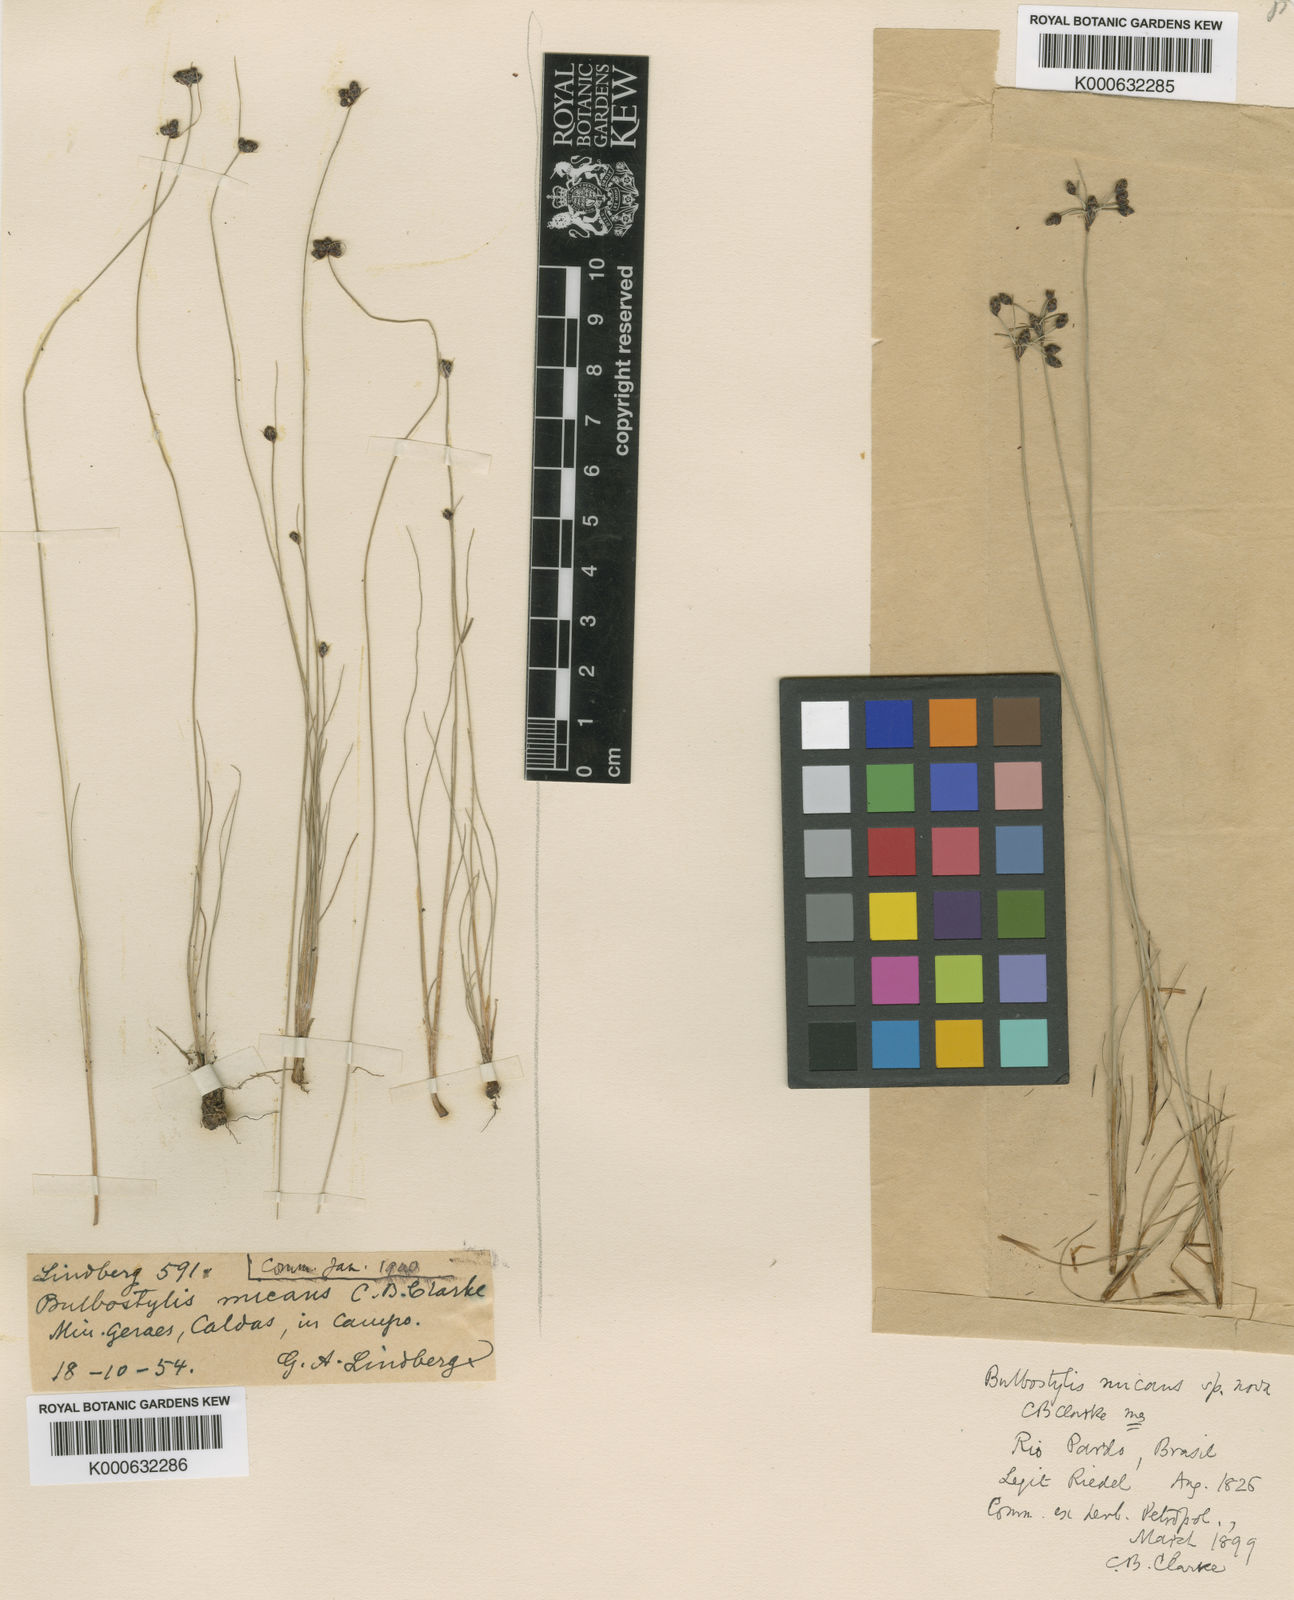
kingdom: Plantae
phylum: Tracheophyta
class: Liliopsida
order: Poales
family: Cyperaceae
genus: Bulbostylis
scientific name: Bulbostylis micans
